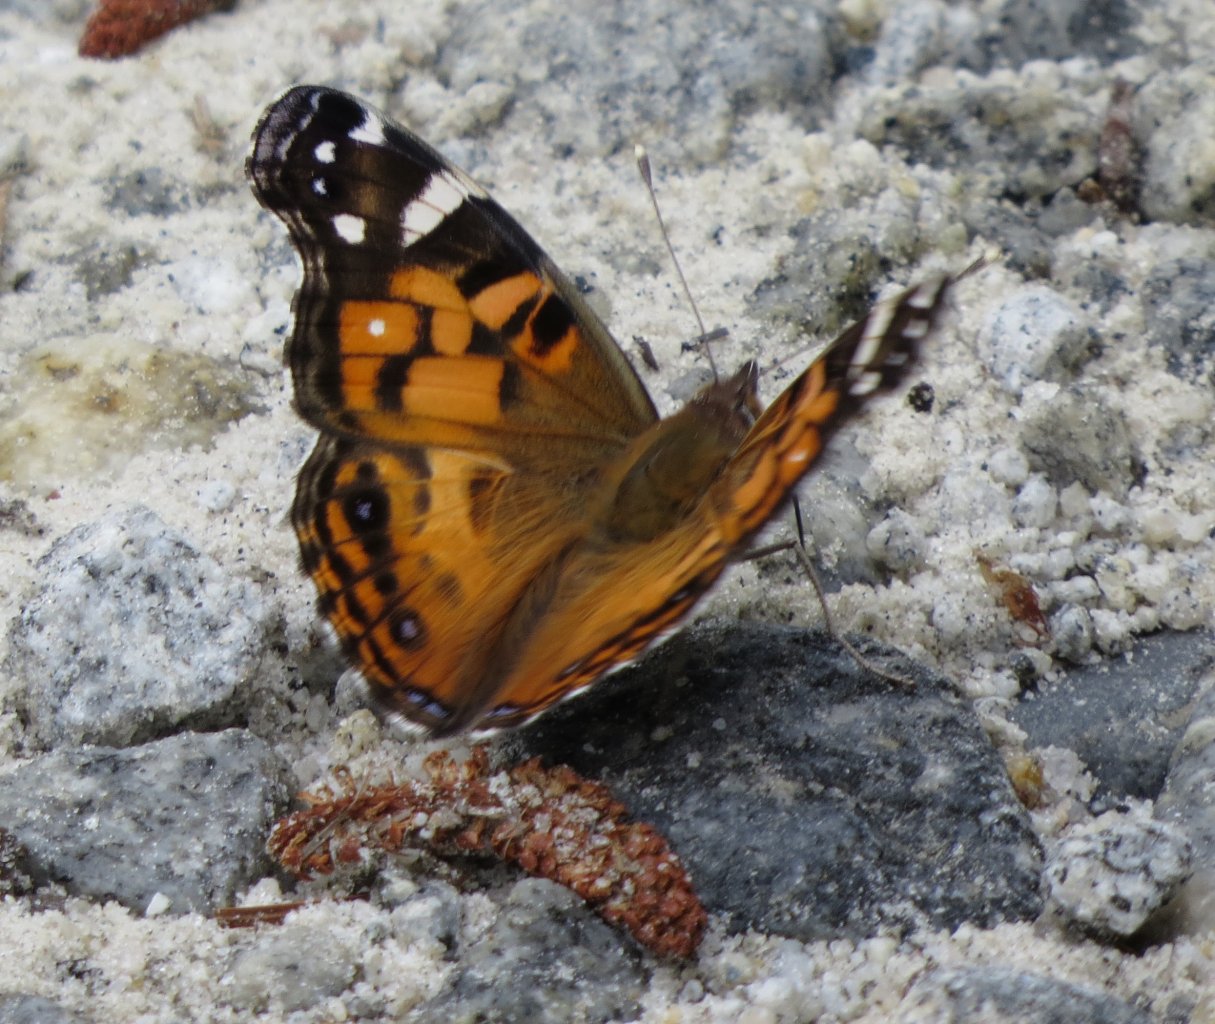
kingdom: Animalia
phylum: Arthropoda
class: Insecta
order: Lepidoptera
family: Nymphalidae
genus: Vanessa
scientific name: Vanessa virginiensis
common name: American Lady
